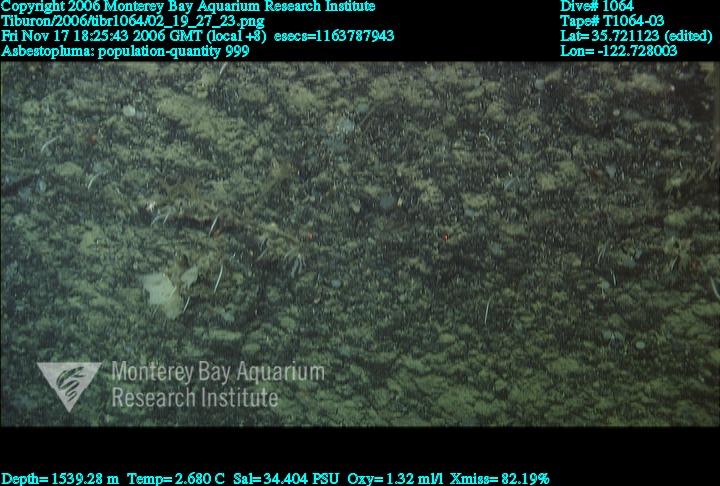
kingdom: Animalia
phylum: Porifera
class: Demospongiae
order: Poecilosclerida
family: Cladorhizidae
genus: Asbestopluma
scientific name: Asbestopluma
